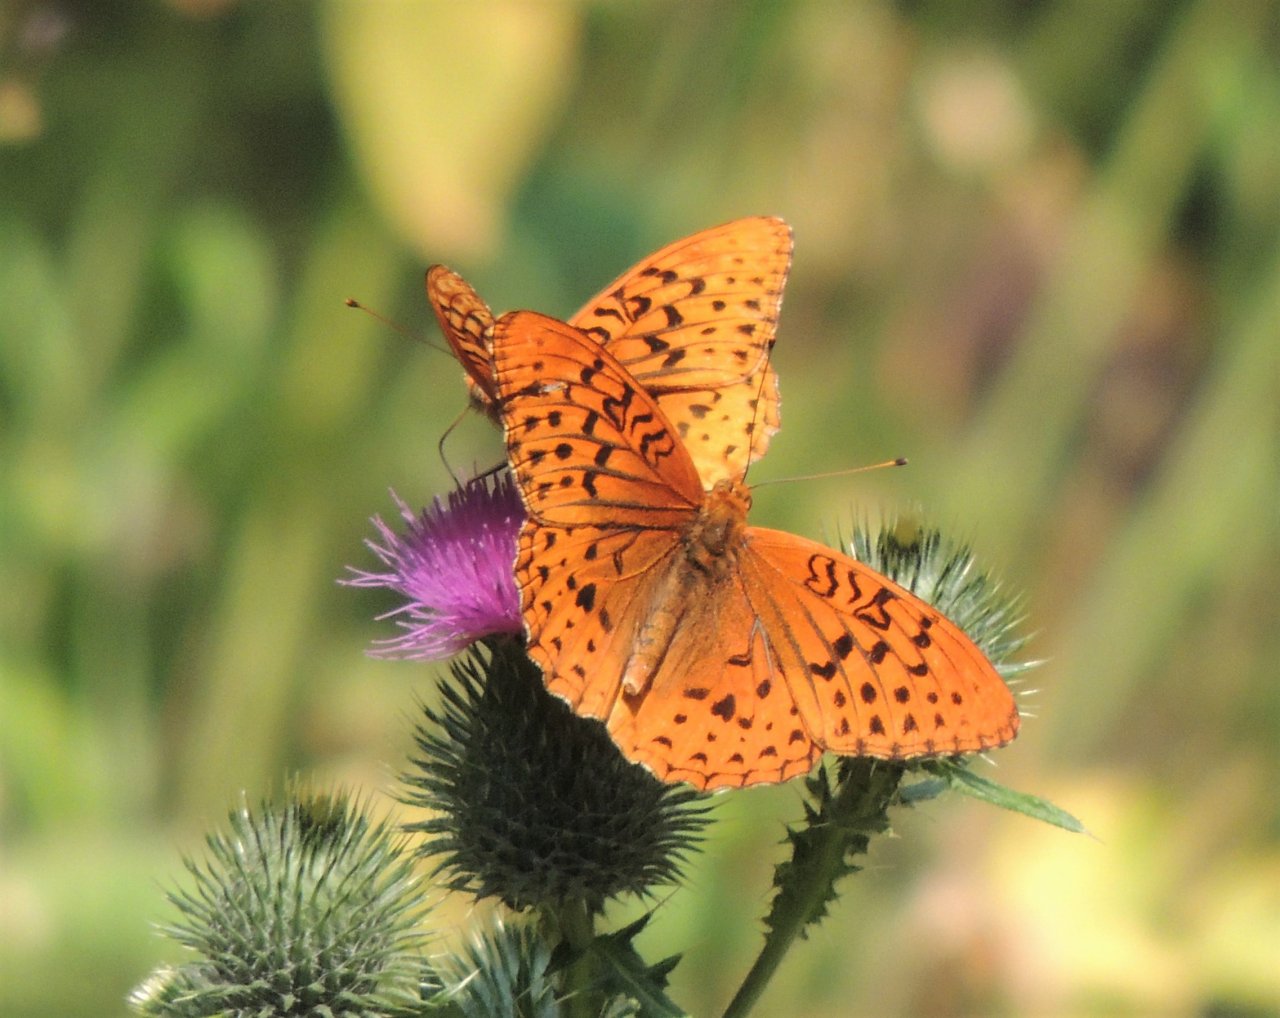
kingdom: Animalia
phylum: Arthropoda
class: Insecta
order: Lepidoptera
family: Nymphalidae
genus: Speyeria
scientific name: Speyeria cybele
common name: Great Spangled Fritillary
